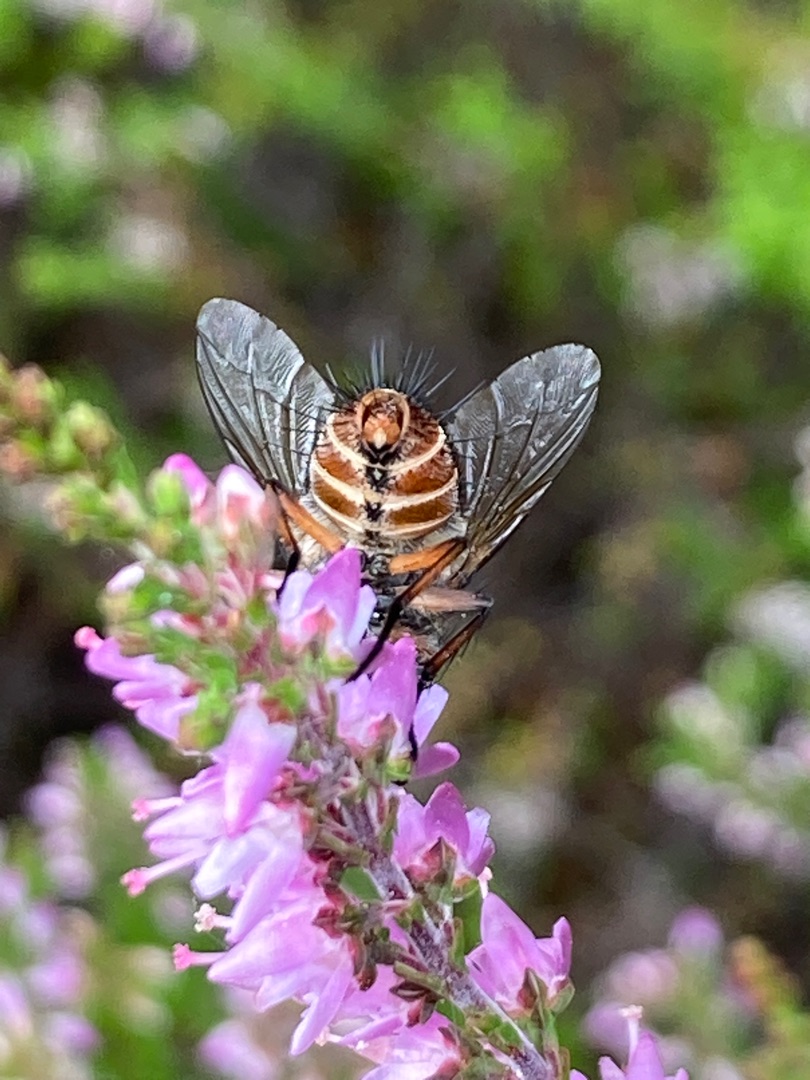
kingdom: Animalia
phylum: Arthropoda
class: Insecta
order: Diptera
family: Tachinidae
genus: Linnaemya
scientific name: Linnaemya vulpina
